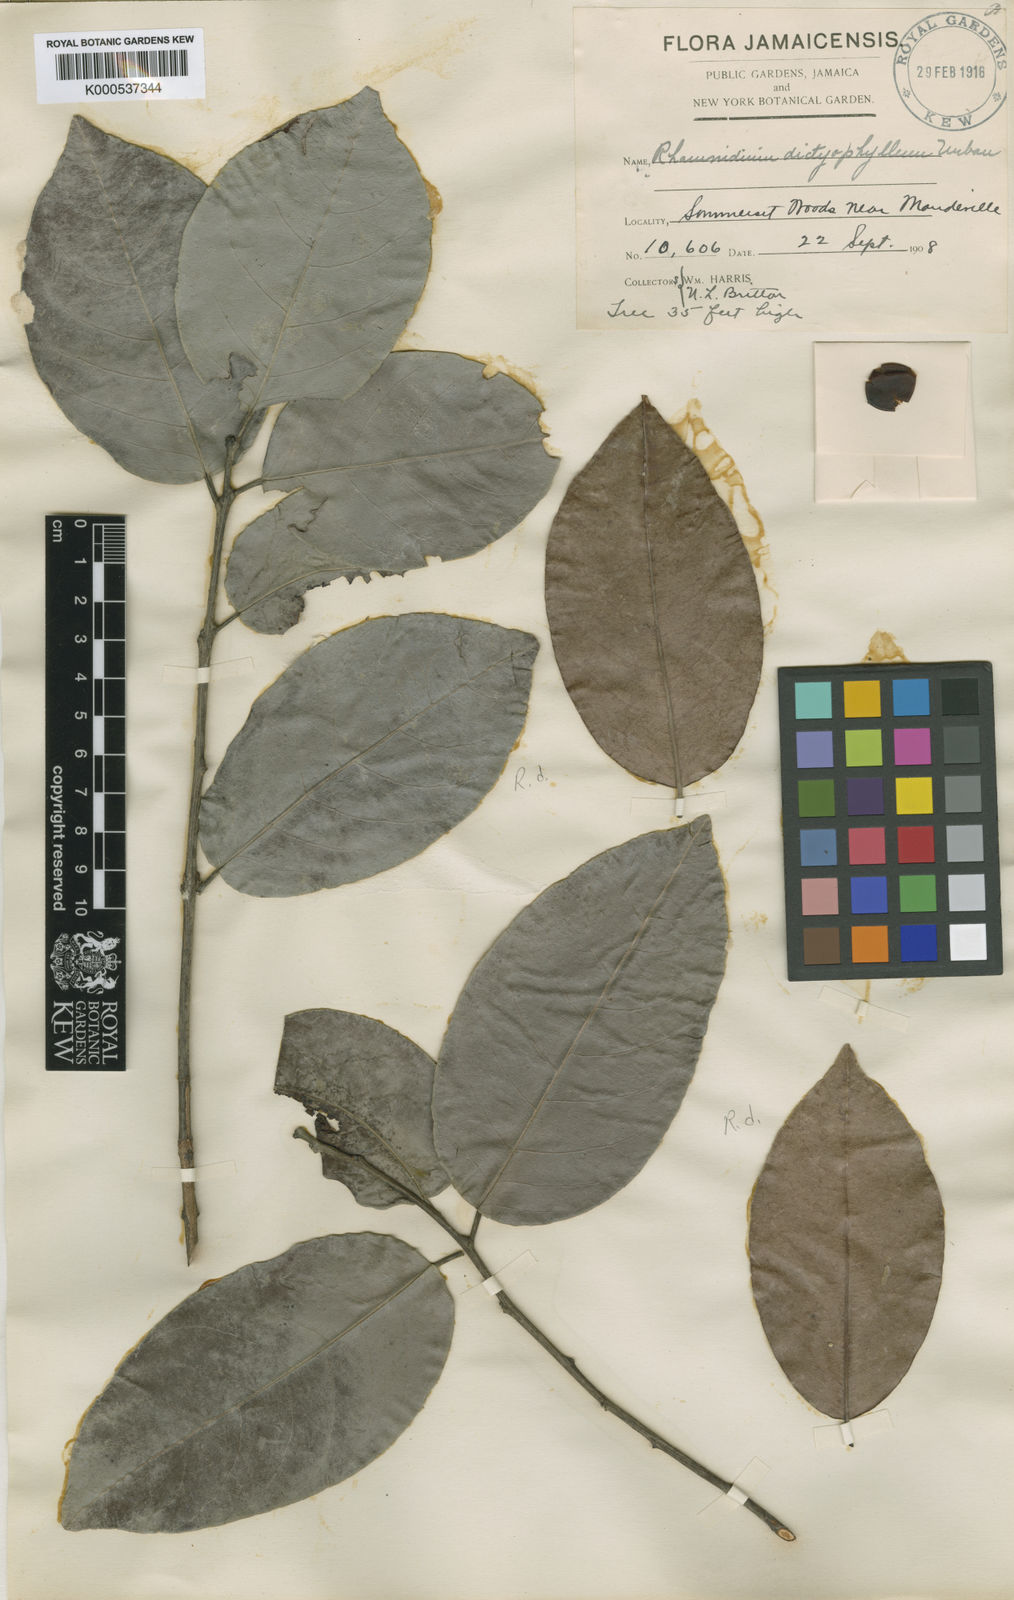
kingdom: Plantae
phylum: Tracheophyta
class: Magnoliopsida
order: Rosales
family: Rhamnaceae
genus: Auerodendron
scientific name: Auerodendron
